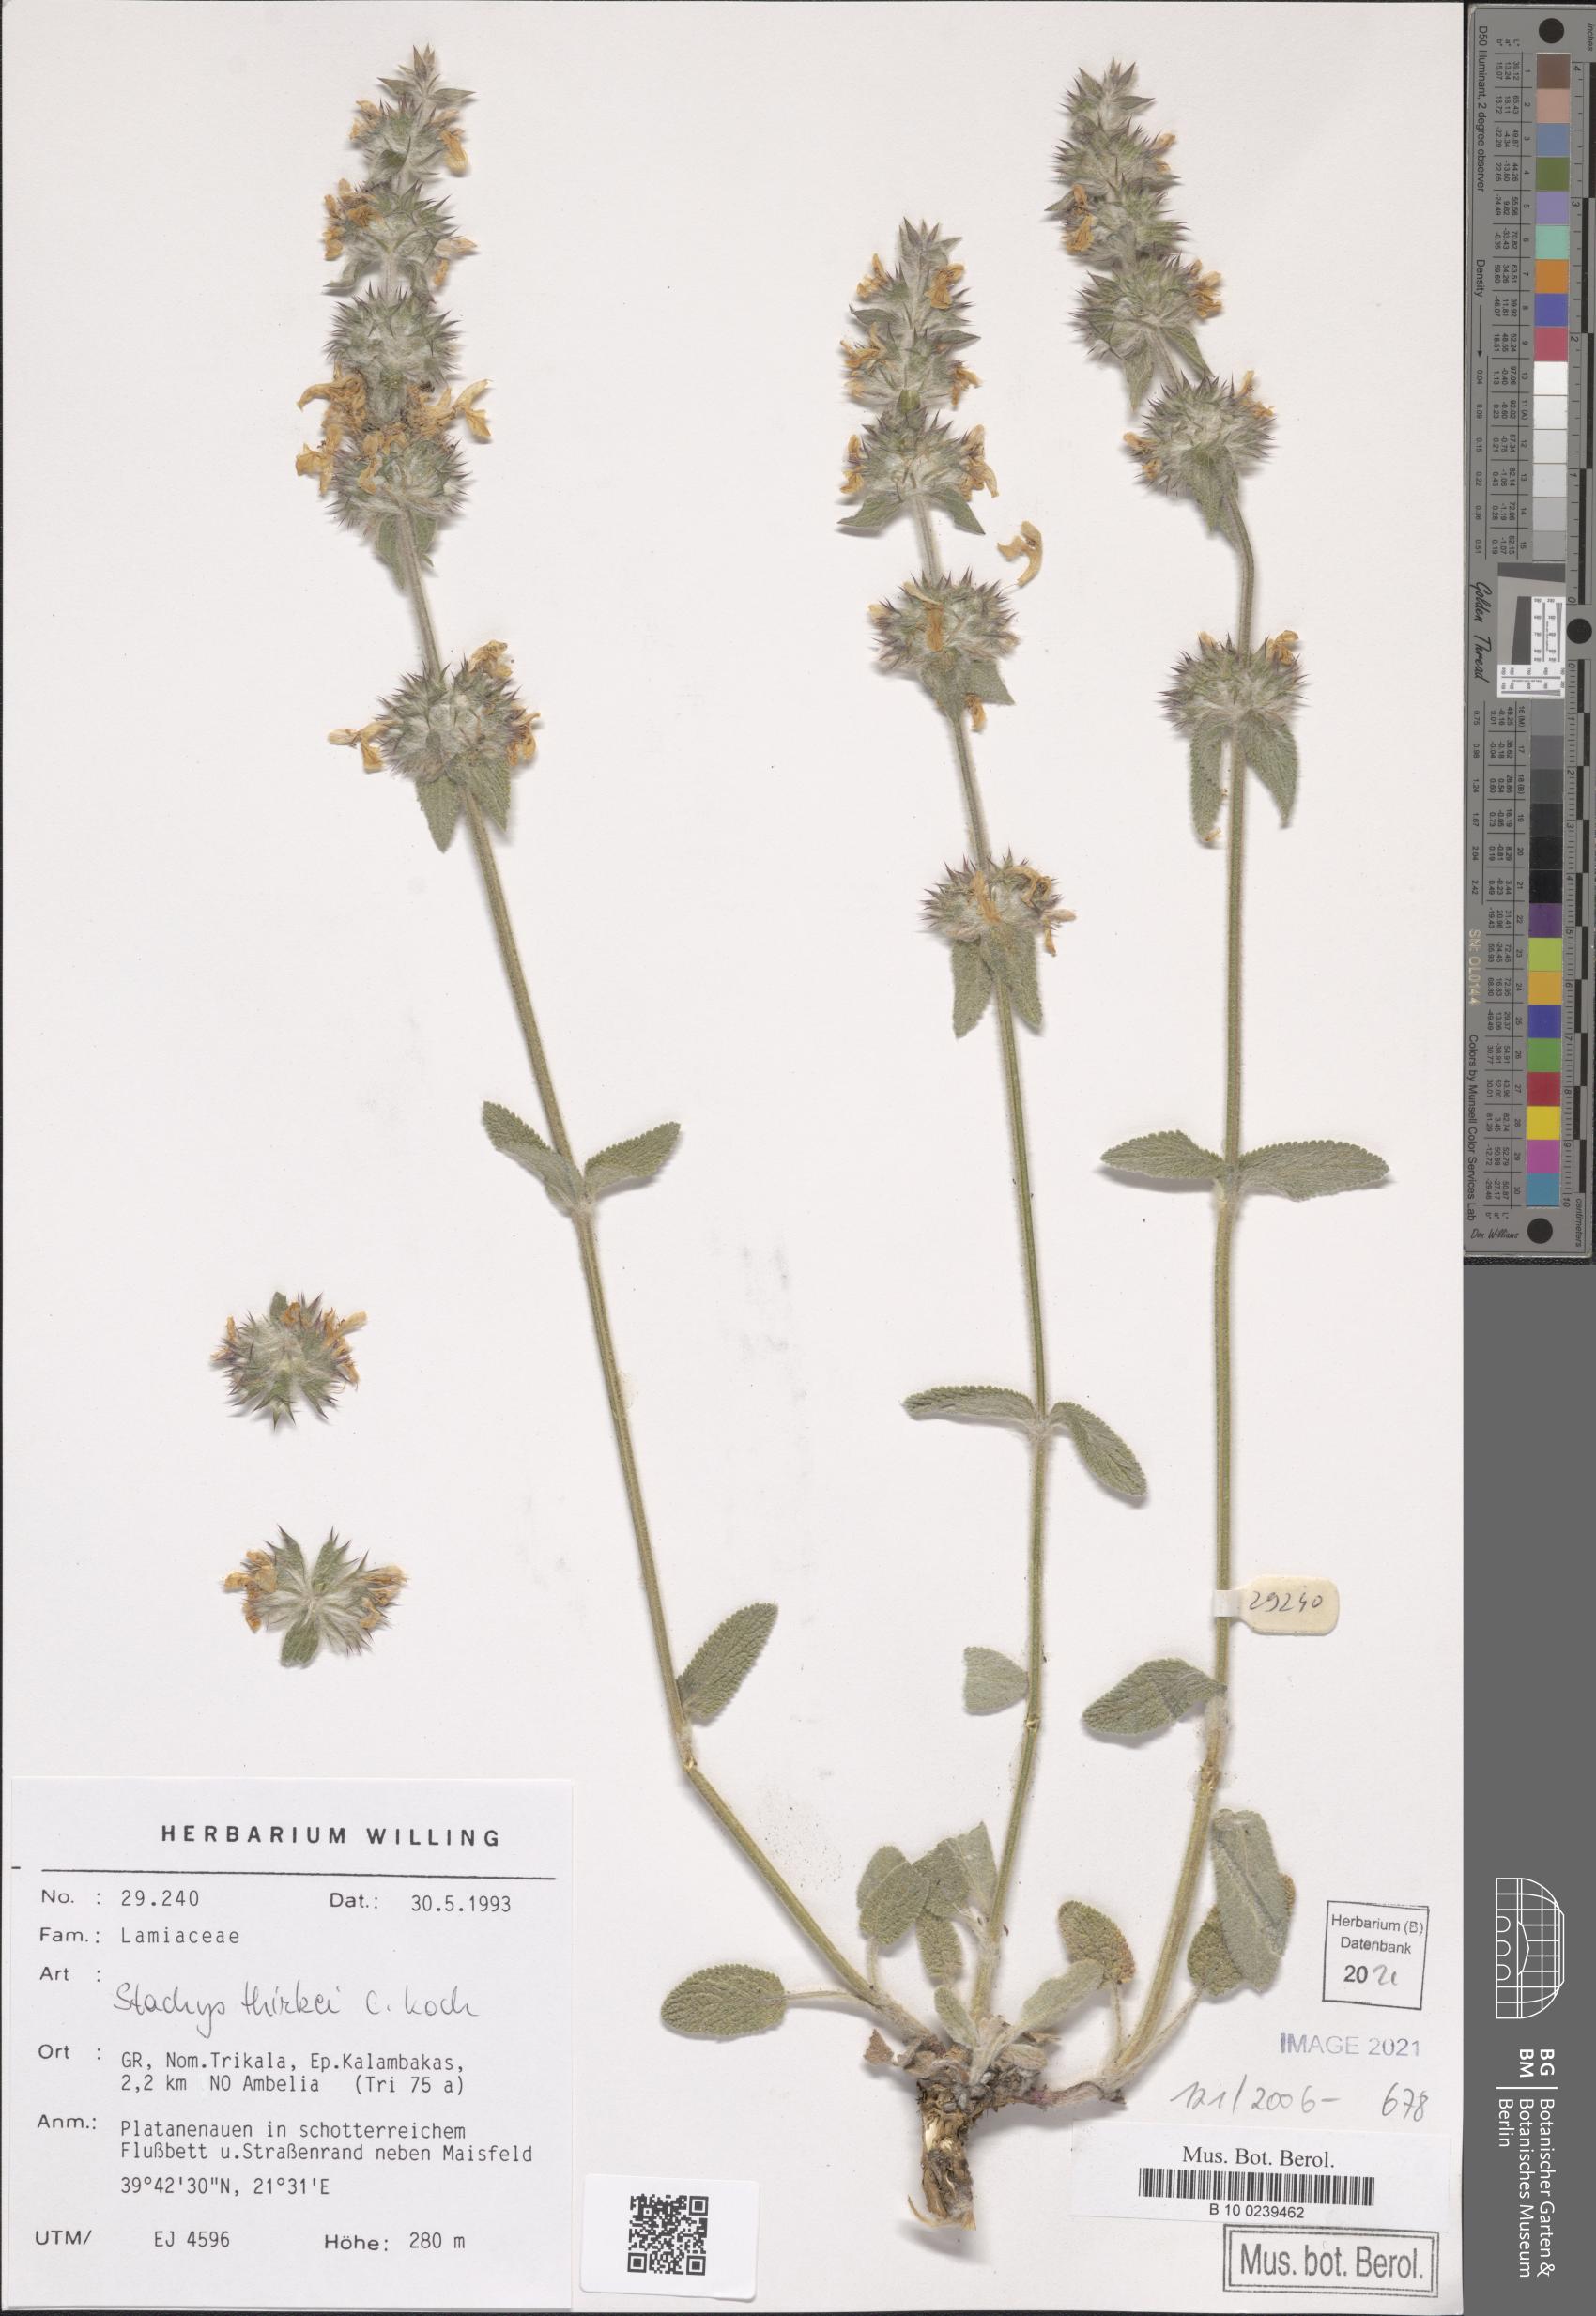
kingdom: Plantae
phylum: Tracheophyta
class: Magnoliopsida
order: Lamiales
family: Lamiaceae
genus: Stachys
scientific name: Stachys thirkei
